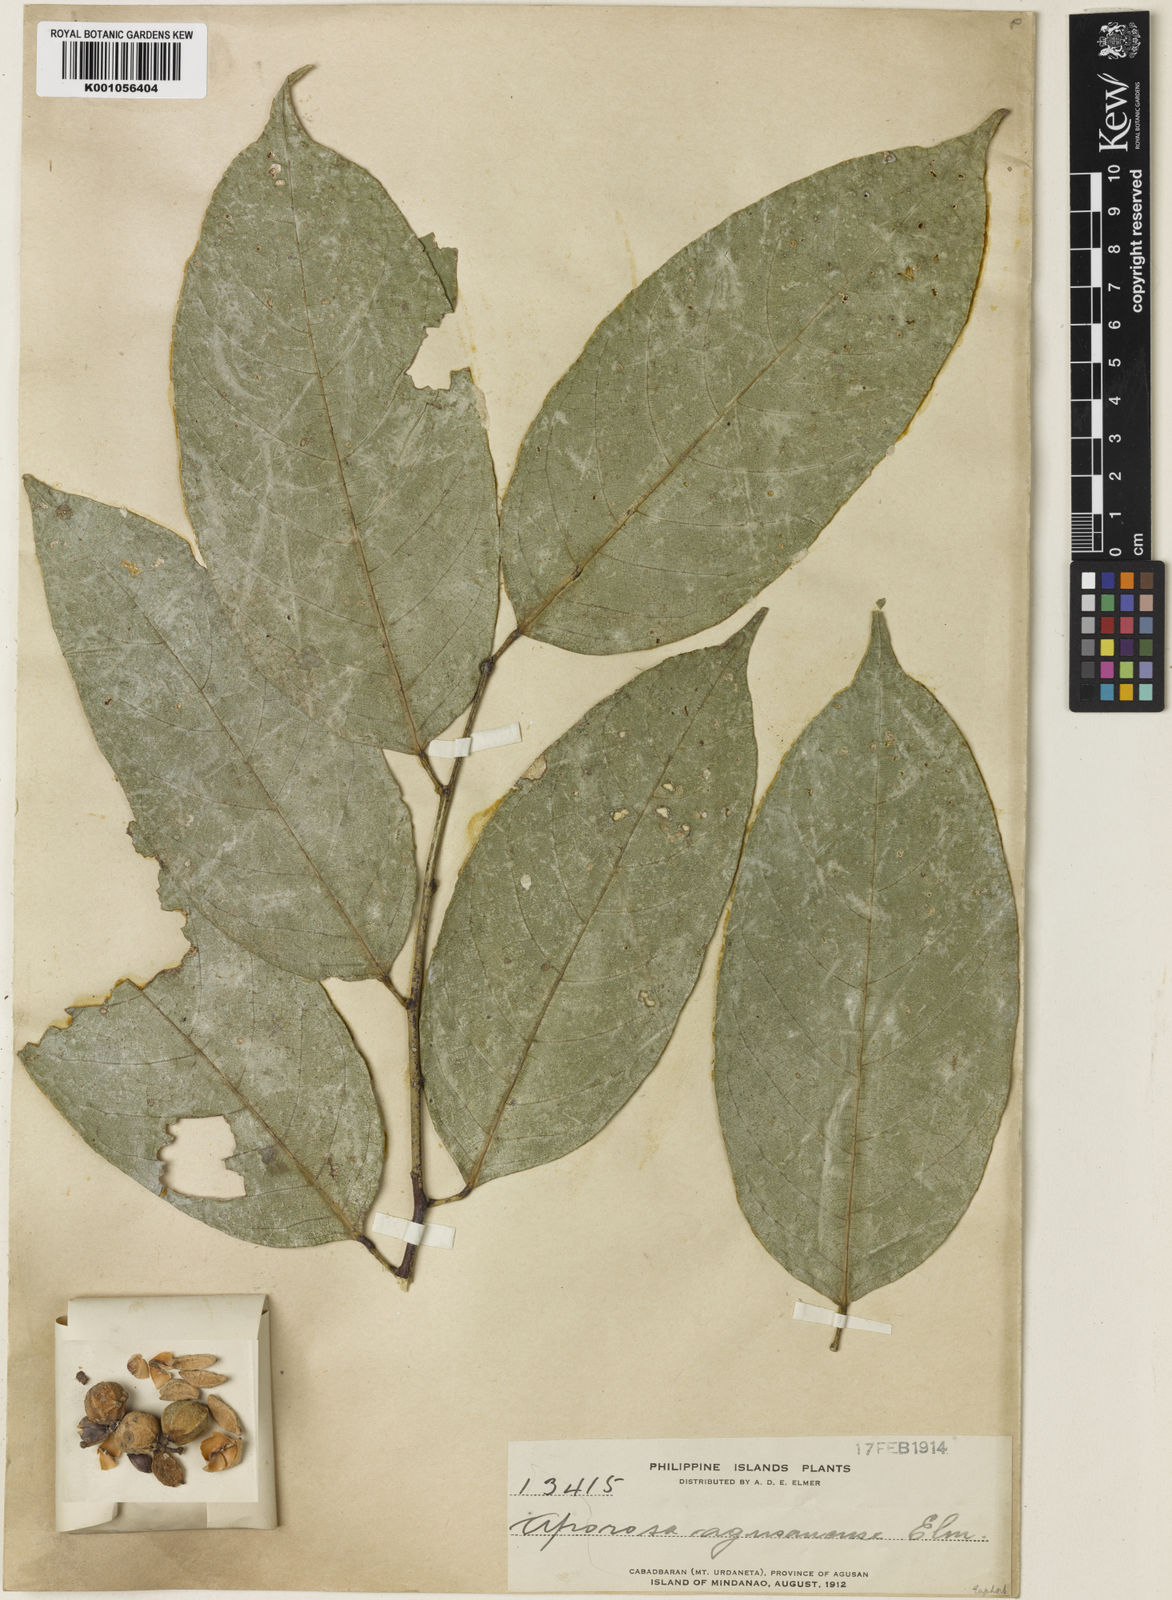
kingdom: Plantae
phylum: Tracheophyta
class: Magnoliopsida
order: Malpighiales
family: Phyllanthaceae
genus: Aporosa
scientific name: Aporosa banahaensis
